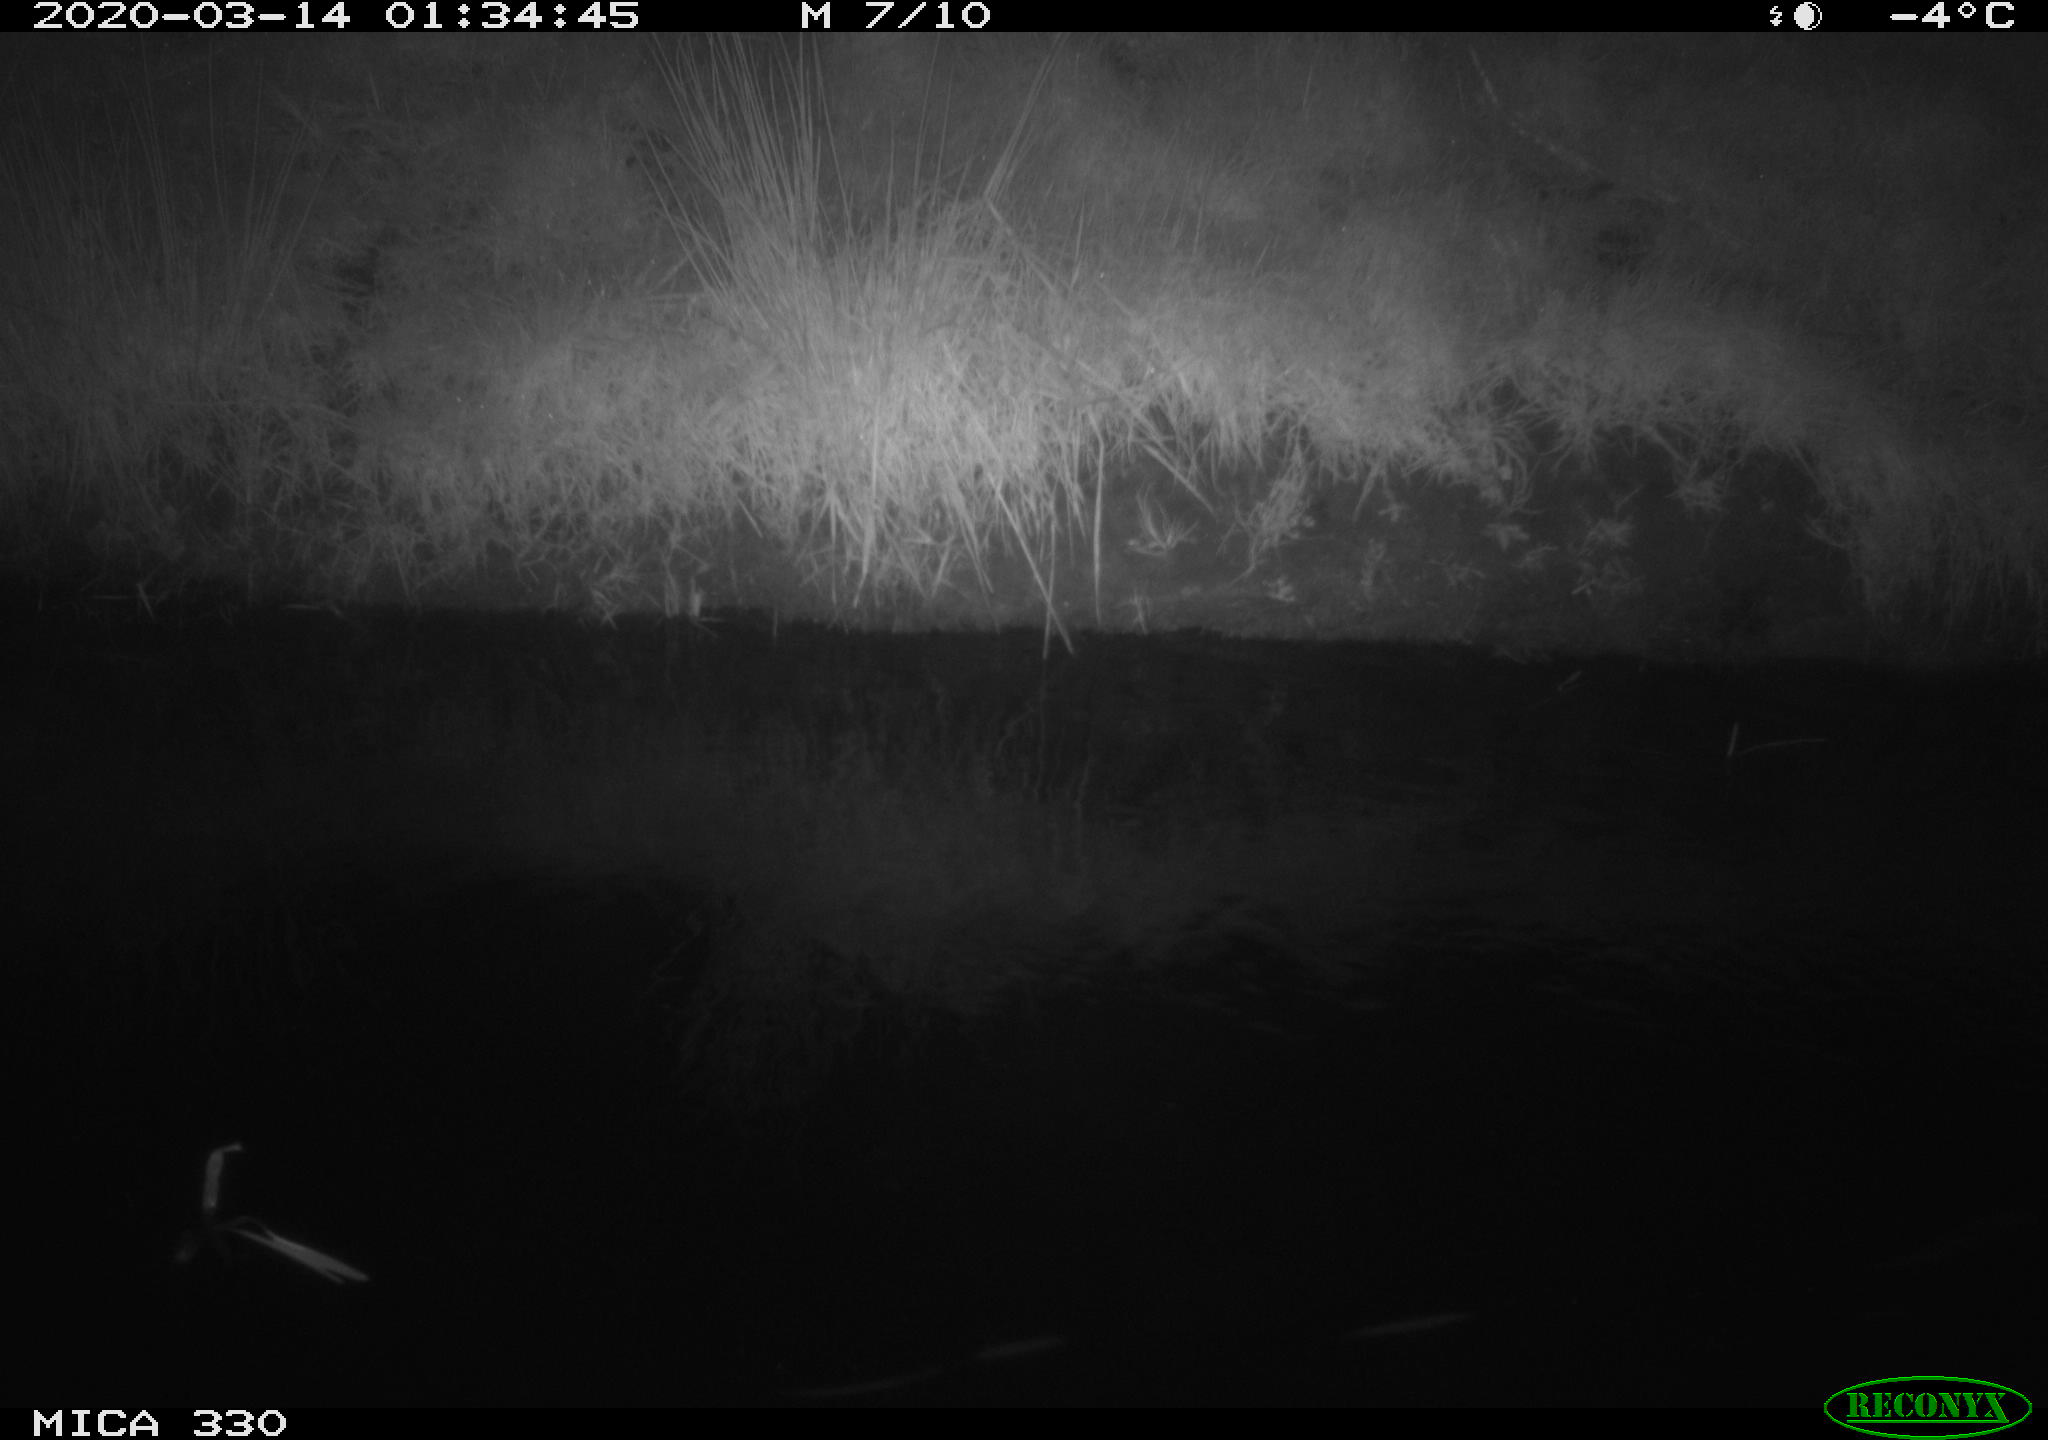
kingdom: Animalia
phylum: Chordata
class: Aves
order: Anseriformes
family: Anatidae
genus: Anas
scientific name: Anas platyrhynchos
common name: Mallard
